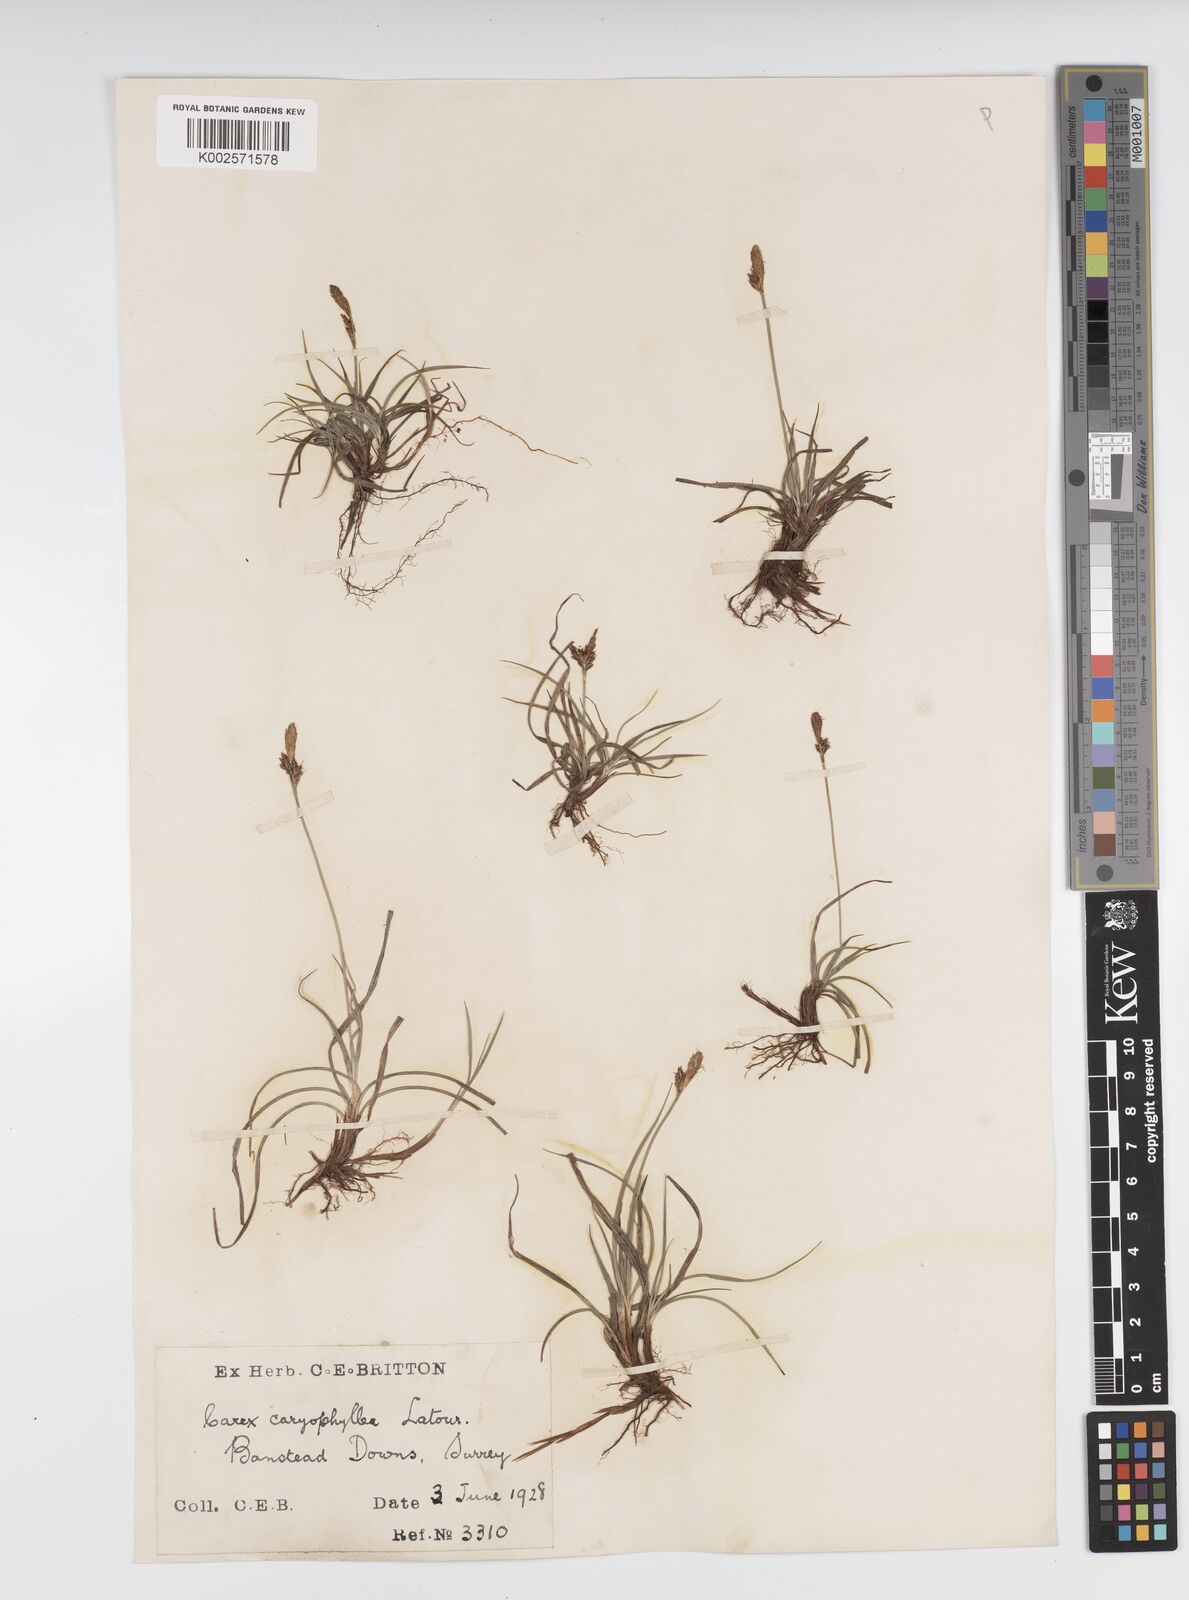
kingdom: Plantae
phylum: Tracheophyta
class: Liliopsida
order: Poales
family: Cyperaceae
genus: Carex
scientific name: Carex caryophyllea
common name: Spring sedge
